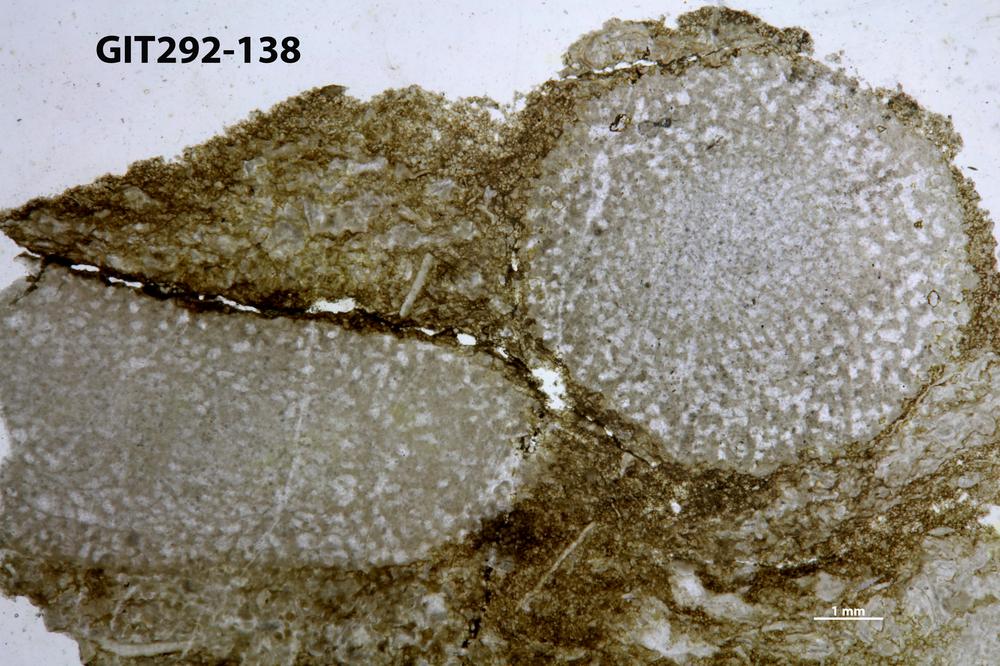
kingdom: Animalia
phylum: Porifera
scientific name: Porifera
